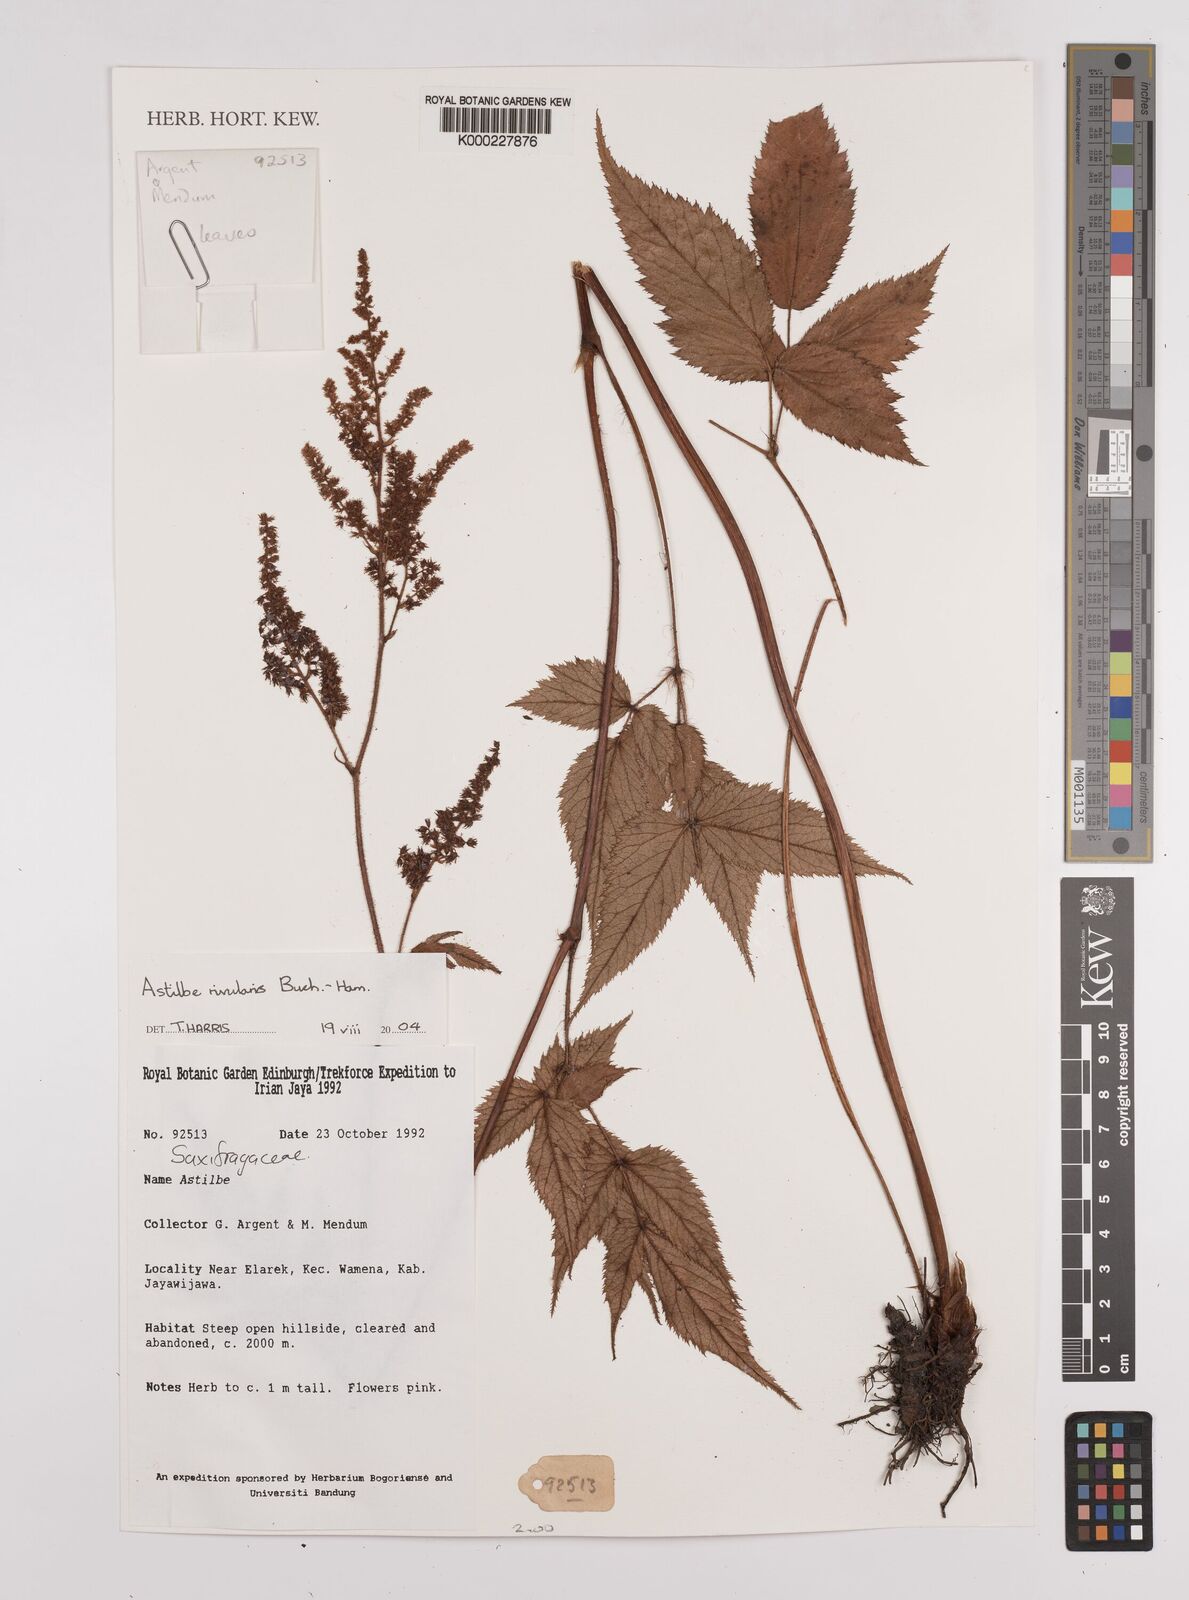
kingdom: Plantae
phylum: Tracheophyta
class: Magnoliopsida
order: Saxifragales
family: Saxifragaceae
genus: Astilbe
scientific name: Astilbe
